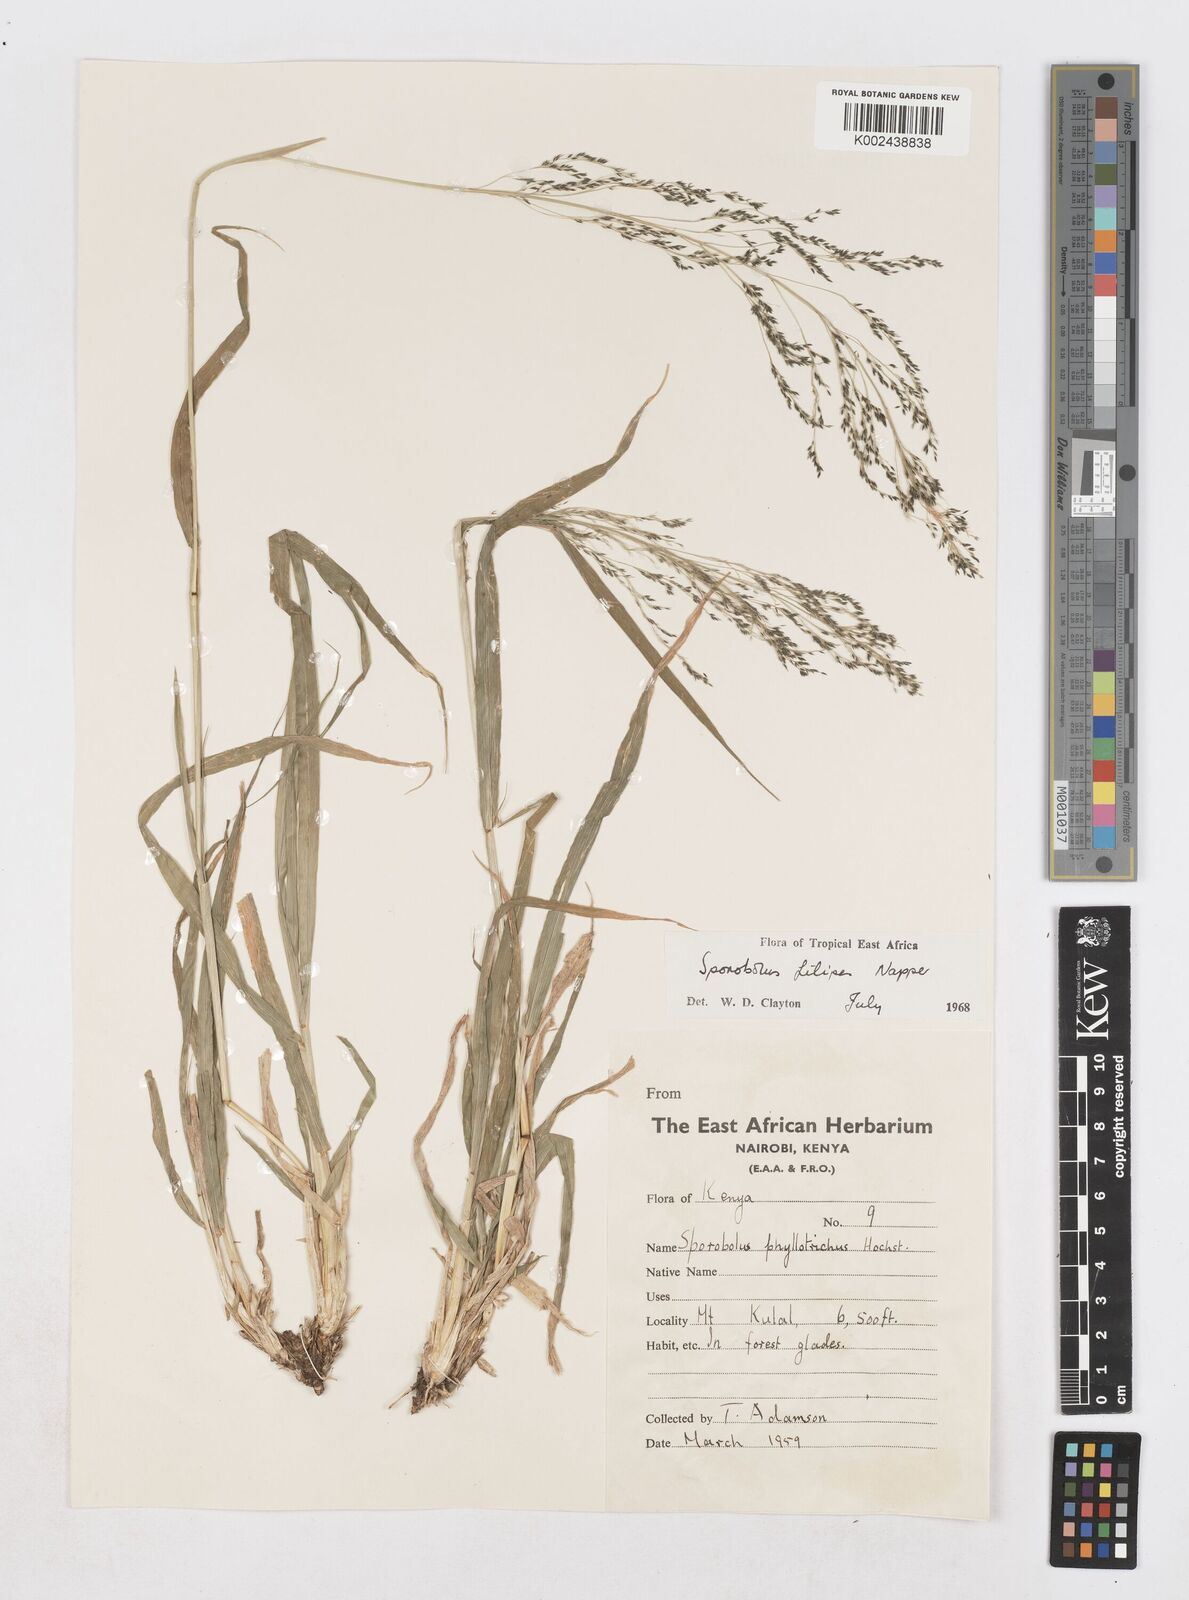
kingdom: Plantae
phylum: Tracheophyta
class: Liliopsida
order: Poales
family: Poaceae
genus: Sporobolus
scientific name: Sporobolus agrostoides
